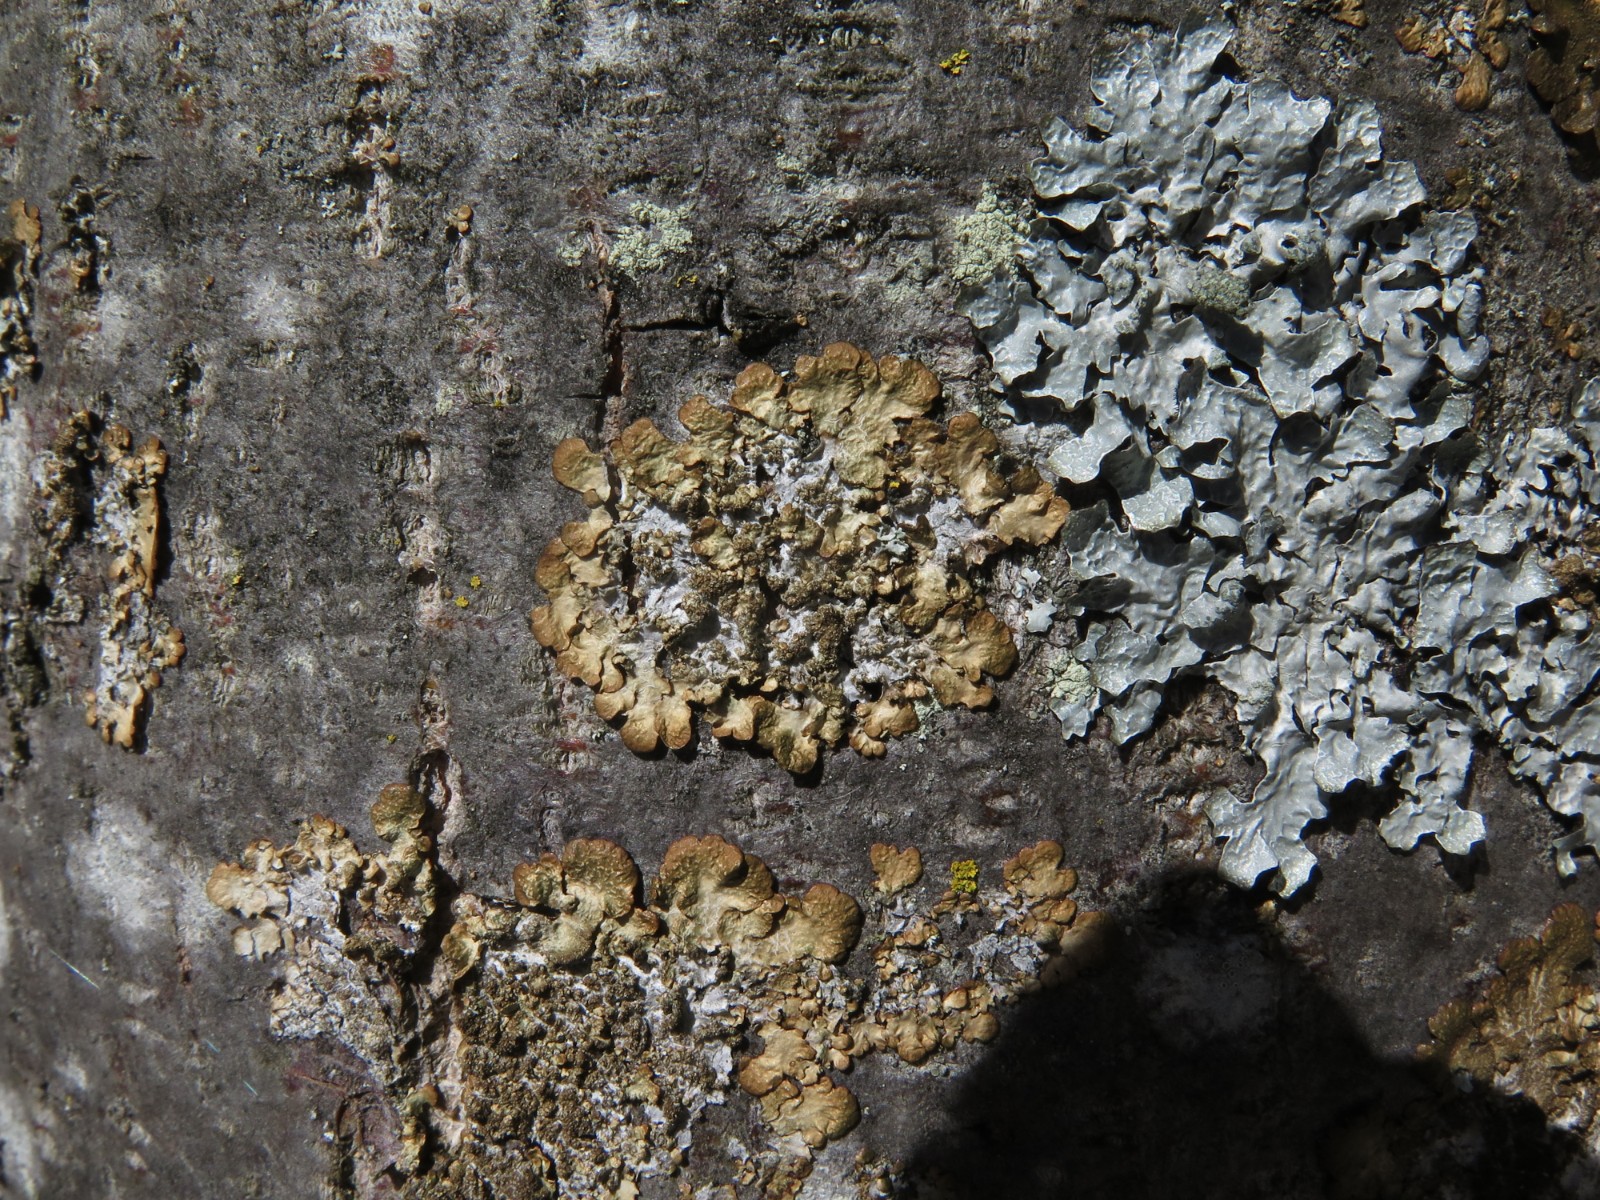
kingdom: Fungi
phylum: Ascomycota
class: Lecanoromycetes
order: Lecanorales
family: Parmeliaceae
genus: Melanelixia
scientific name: Melanelixia subaurifera
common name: guldpudret skållav
